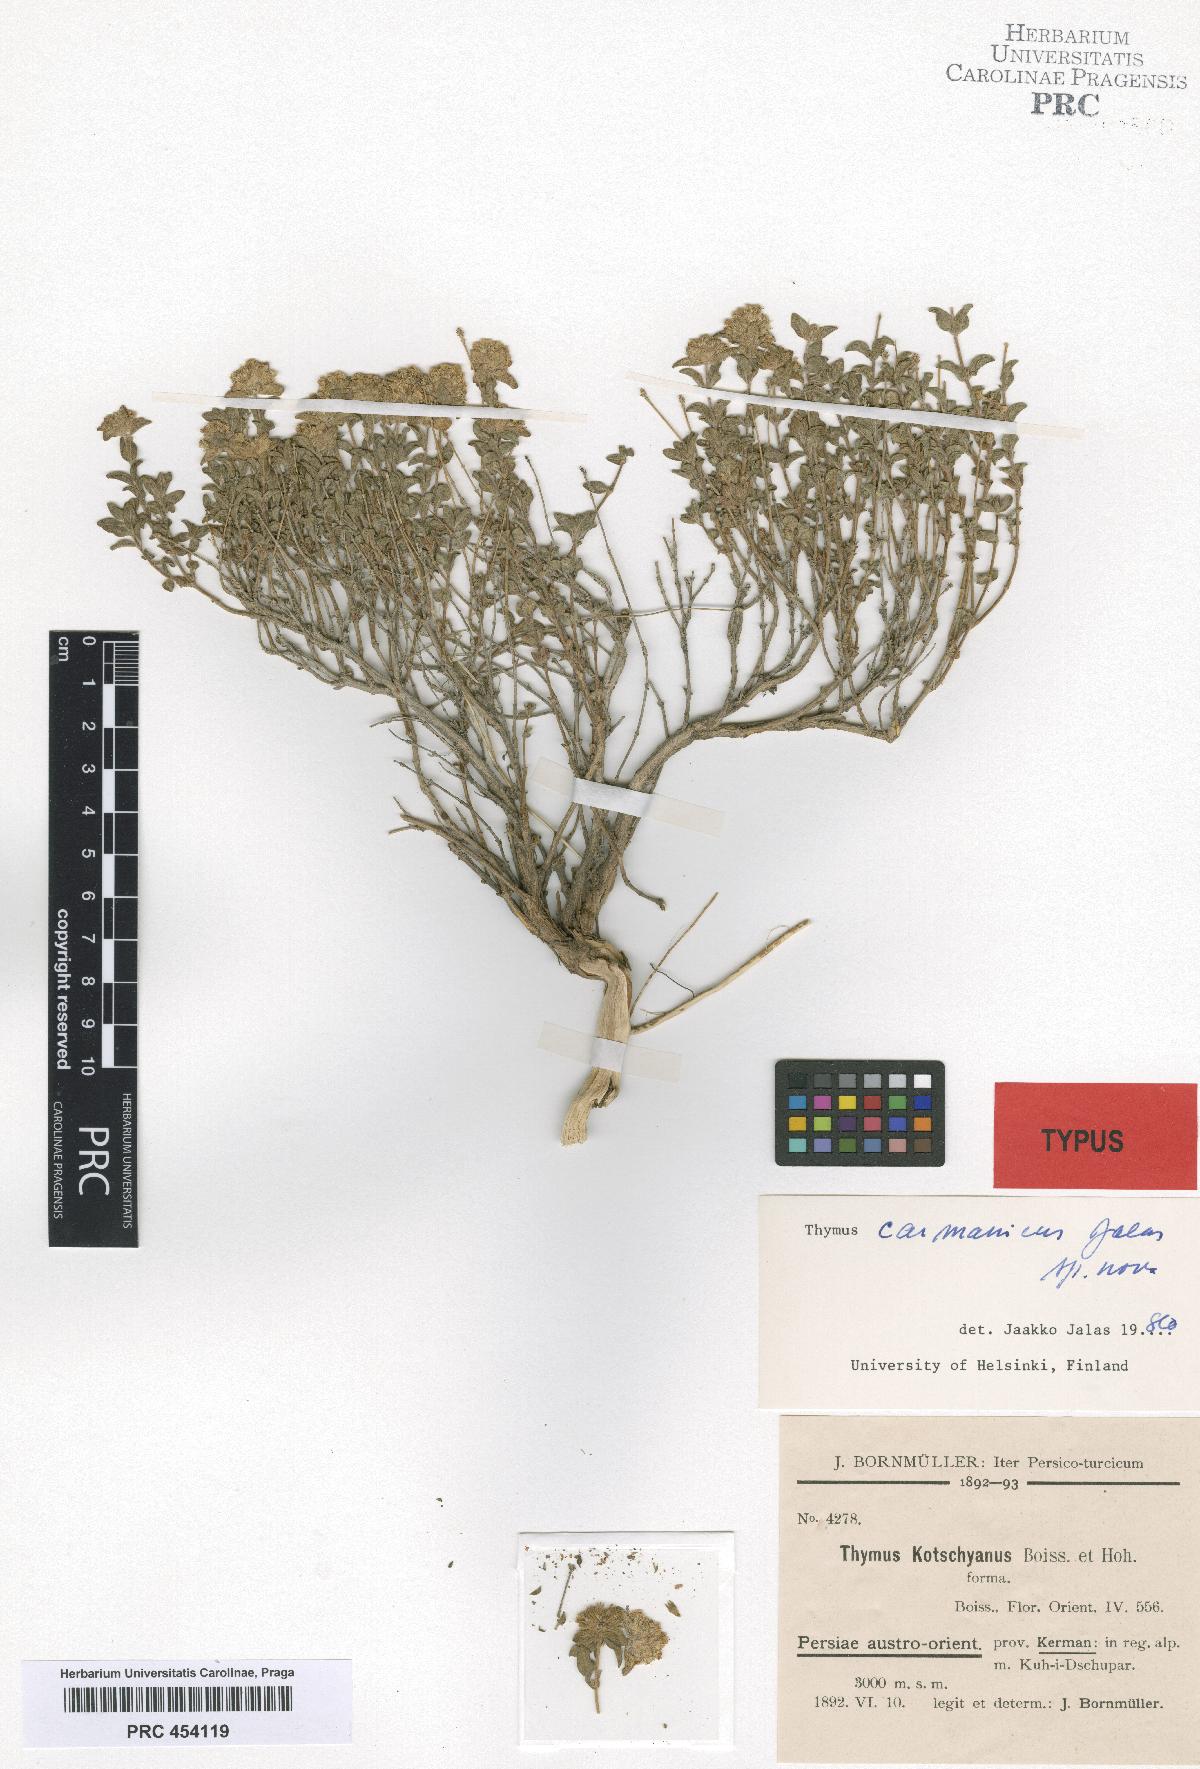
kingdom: Plantae
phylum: Tracheophyta
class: Magnoliopsida
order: Lamiales
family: Lamiaceae
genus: Thymus
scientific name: Thymus carmanicus
